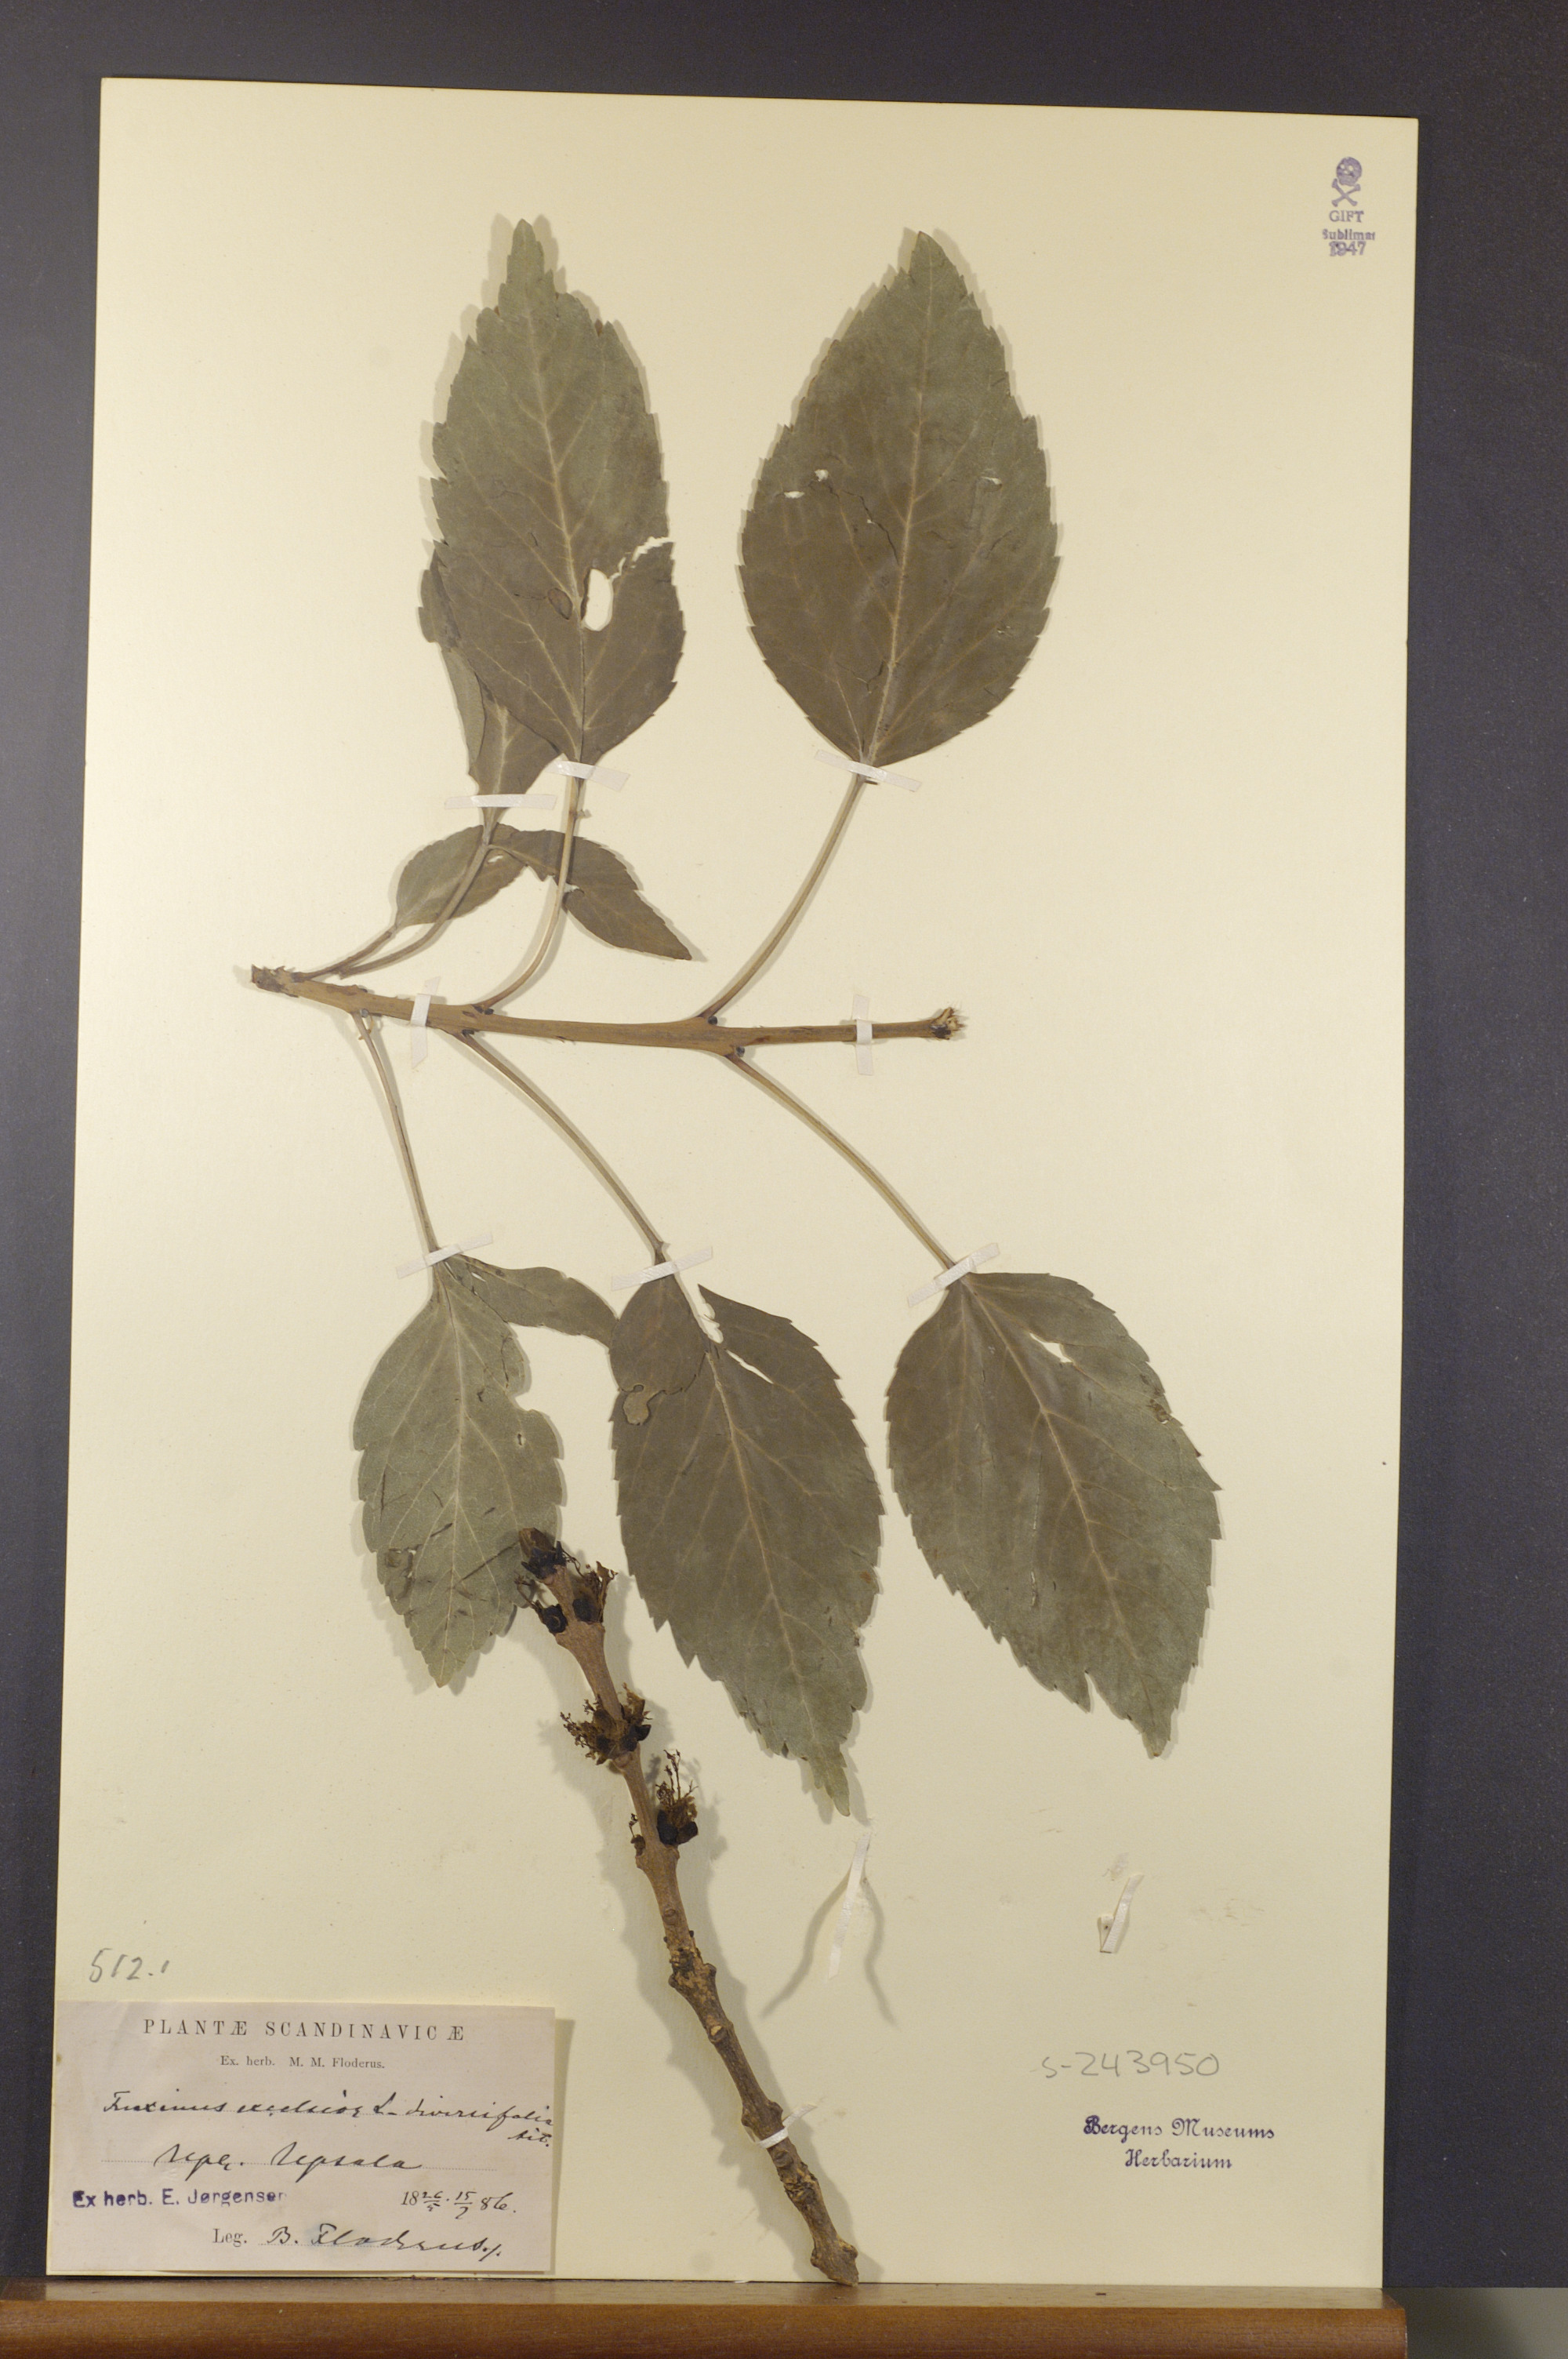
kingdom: Plantae
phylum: Tracheophyta
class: Magnoliopsida
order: Lamiales
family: Oleaceae
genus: Fraxinus
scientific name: Fraxinus excelsior
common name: European ash
